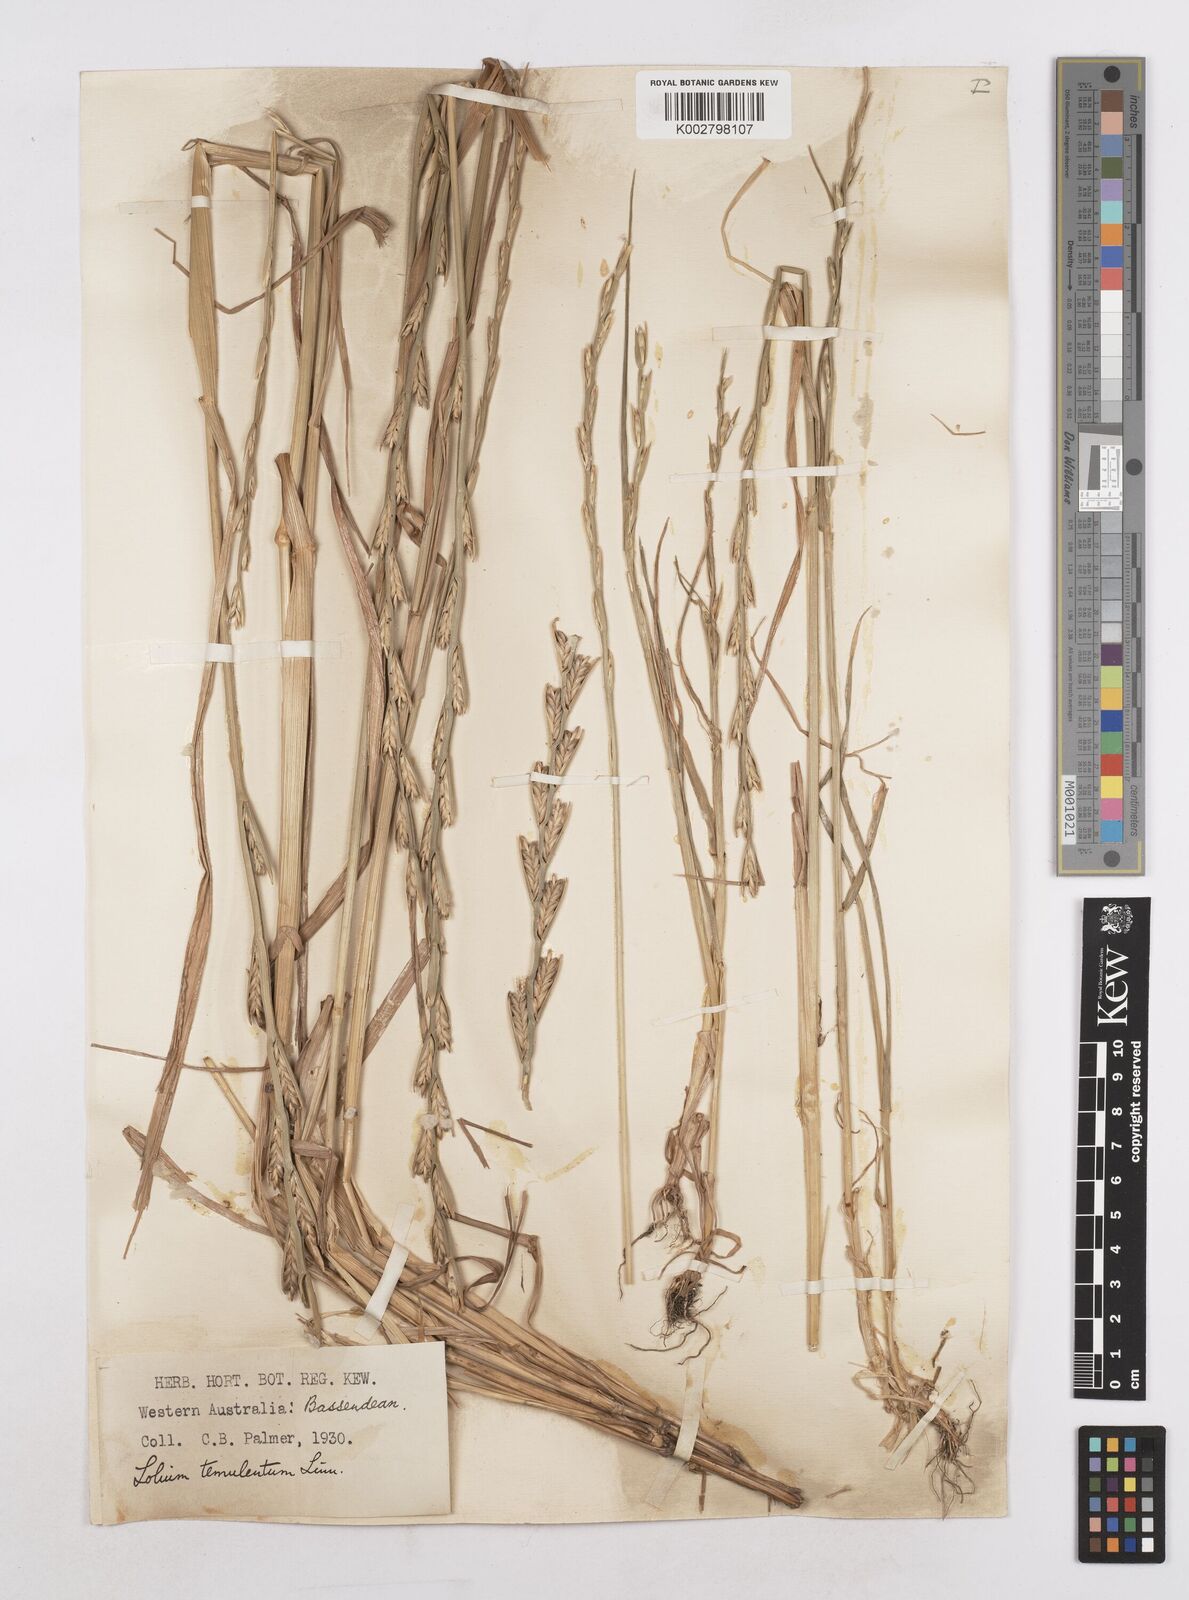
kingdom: Plantae
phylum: Tracheophyta
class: Liliopsida
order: Poales
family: Poaceae
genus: Lolium
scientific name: Lolium temulentum
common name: Darnel
